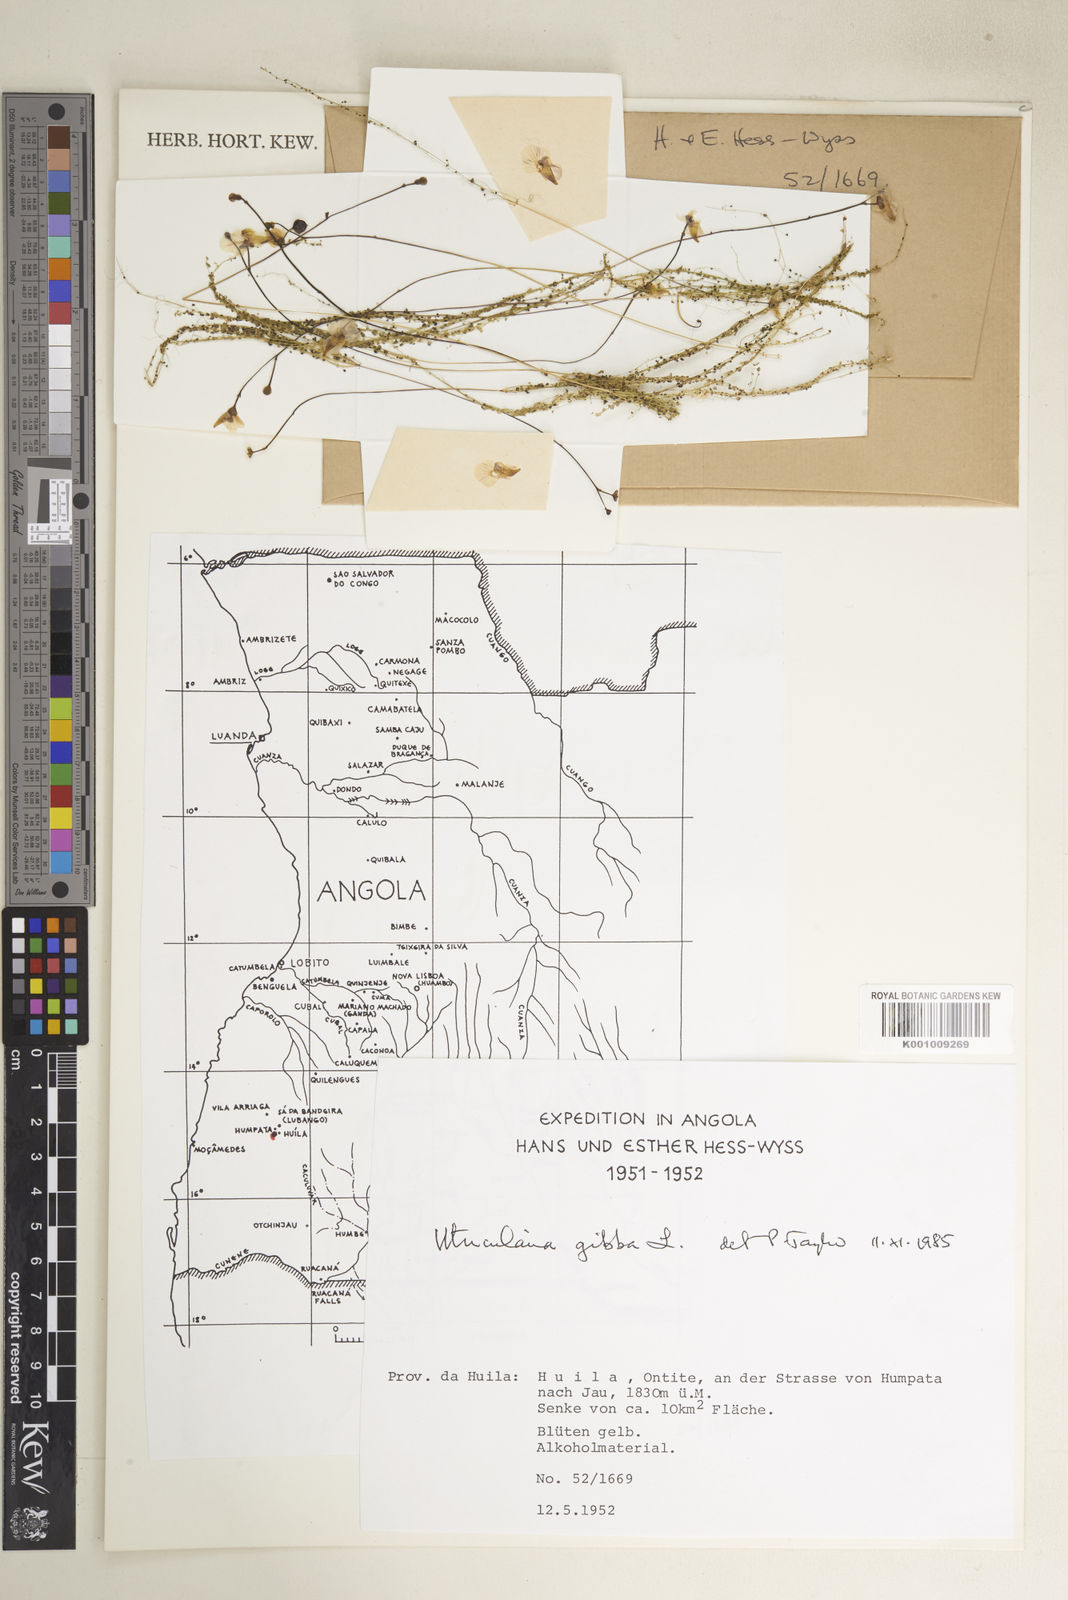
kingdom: Plantae
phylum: Tracheophyta
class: Magnoliopsida
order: Lamiales
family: Lentibulariaceae
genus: Utricularia
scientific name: Utricularia gibba
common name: Humped bladderwort
